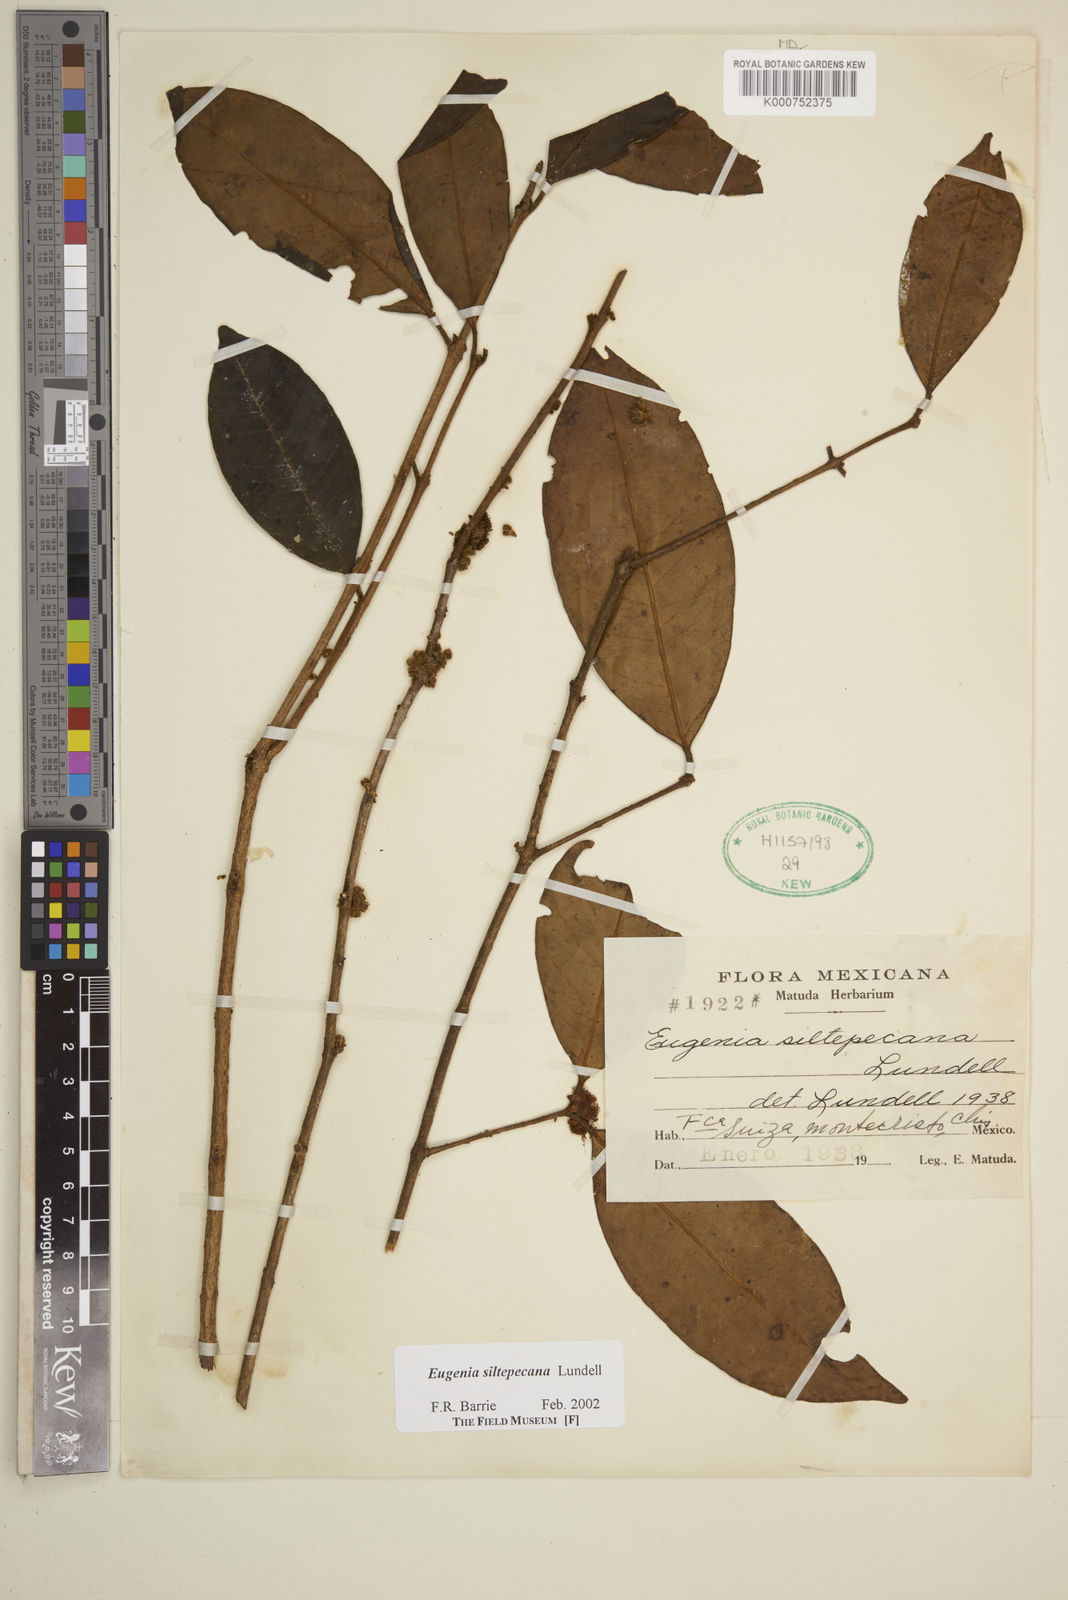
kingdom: Plantae
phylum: Tracheophyta
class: Magnoliopsida
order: Myrtales
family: Myrtaceae
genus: Eugenia
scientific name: Eugenia siltepecana
